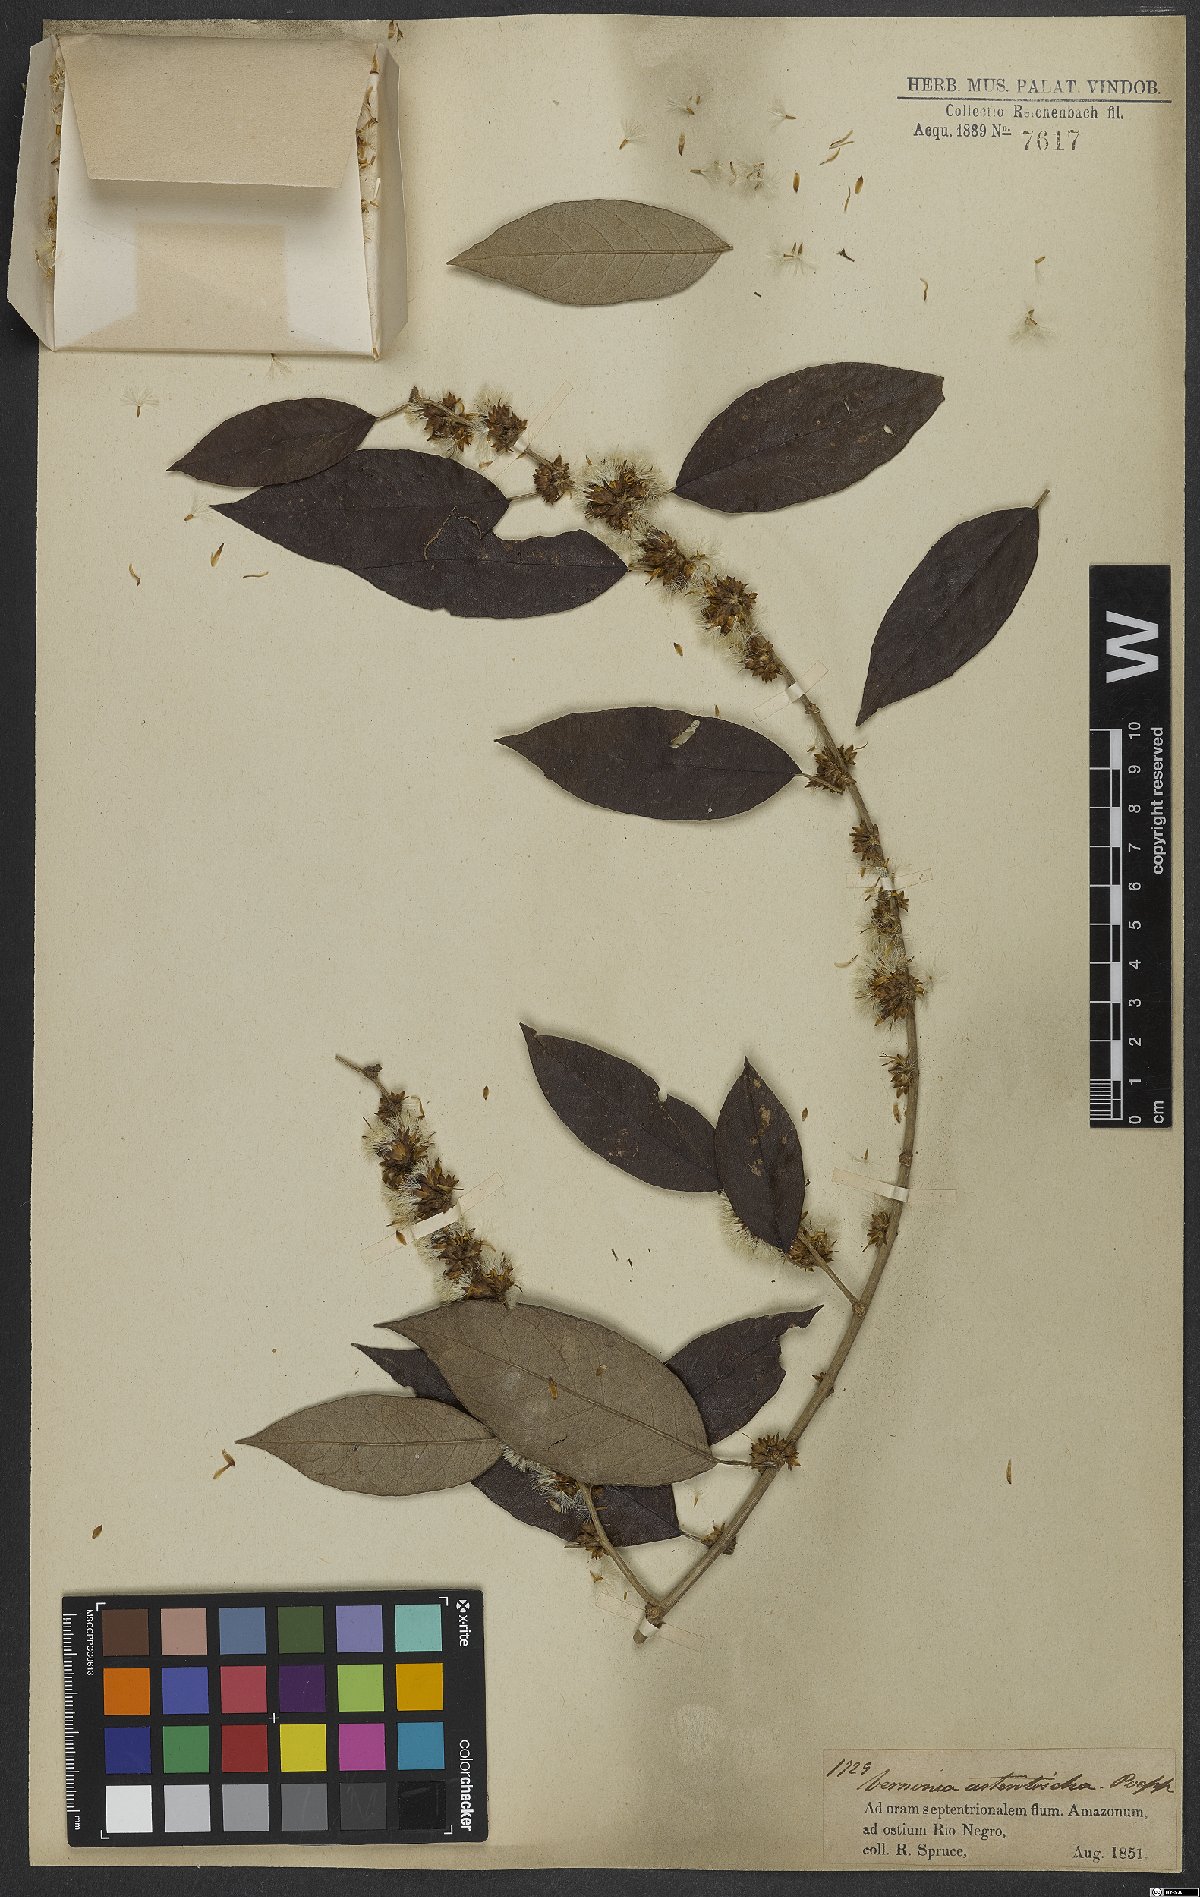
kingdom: Plantae
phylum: Tracheophyta
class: Magnoliopsida
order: Asterales
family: Asteraceae
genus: Piptocarpha
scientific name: Piptocarpha asterotrichia
